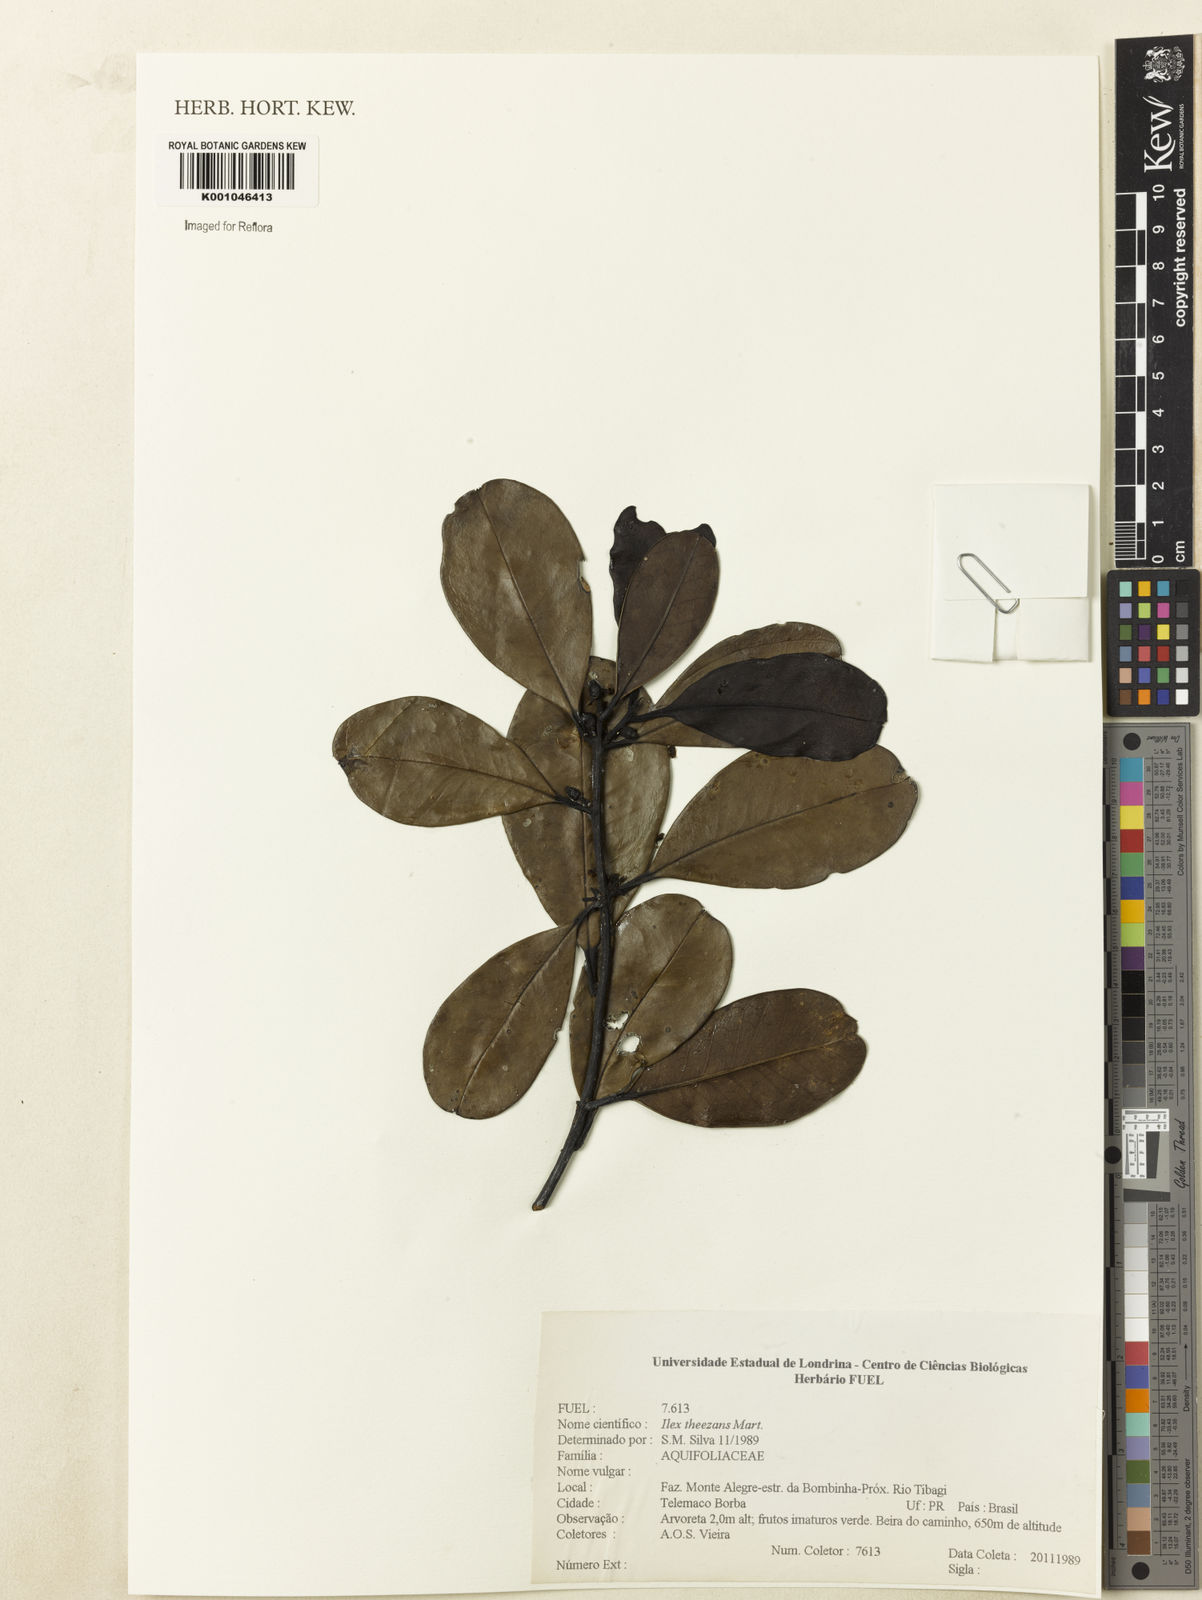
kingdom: Plantae
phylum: Tracheophyta
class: Magnoliopsida
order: Aquifoliales
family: Aquifoliaceae
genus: Ilex
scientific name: Ilex paraguariensis
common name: Paraguay tea
